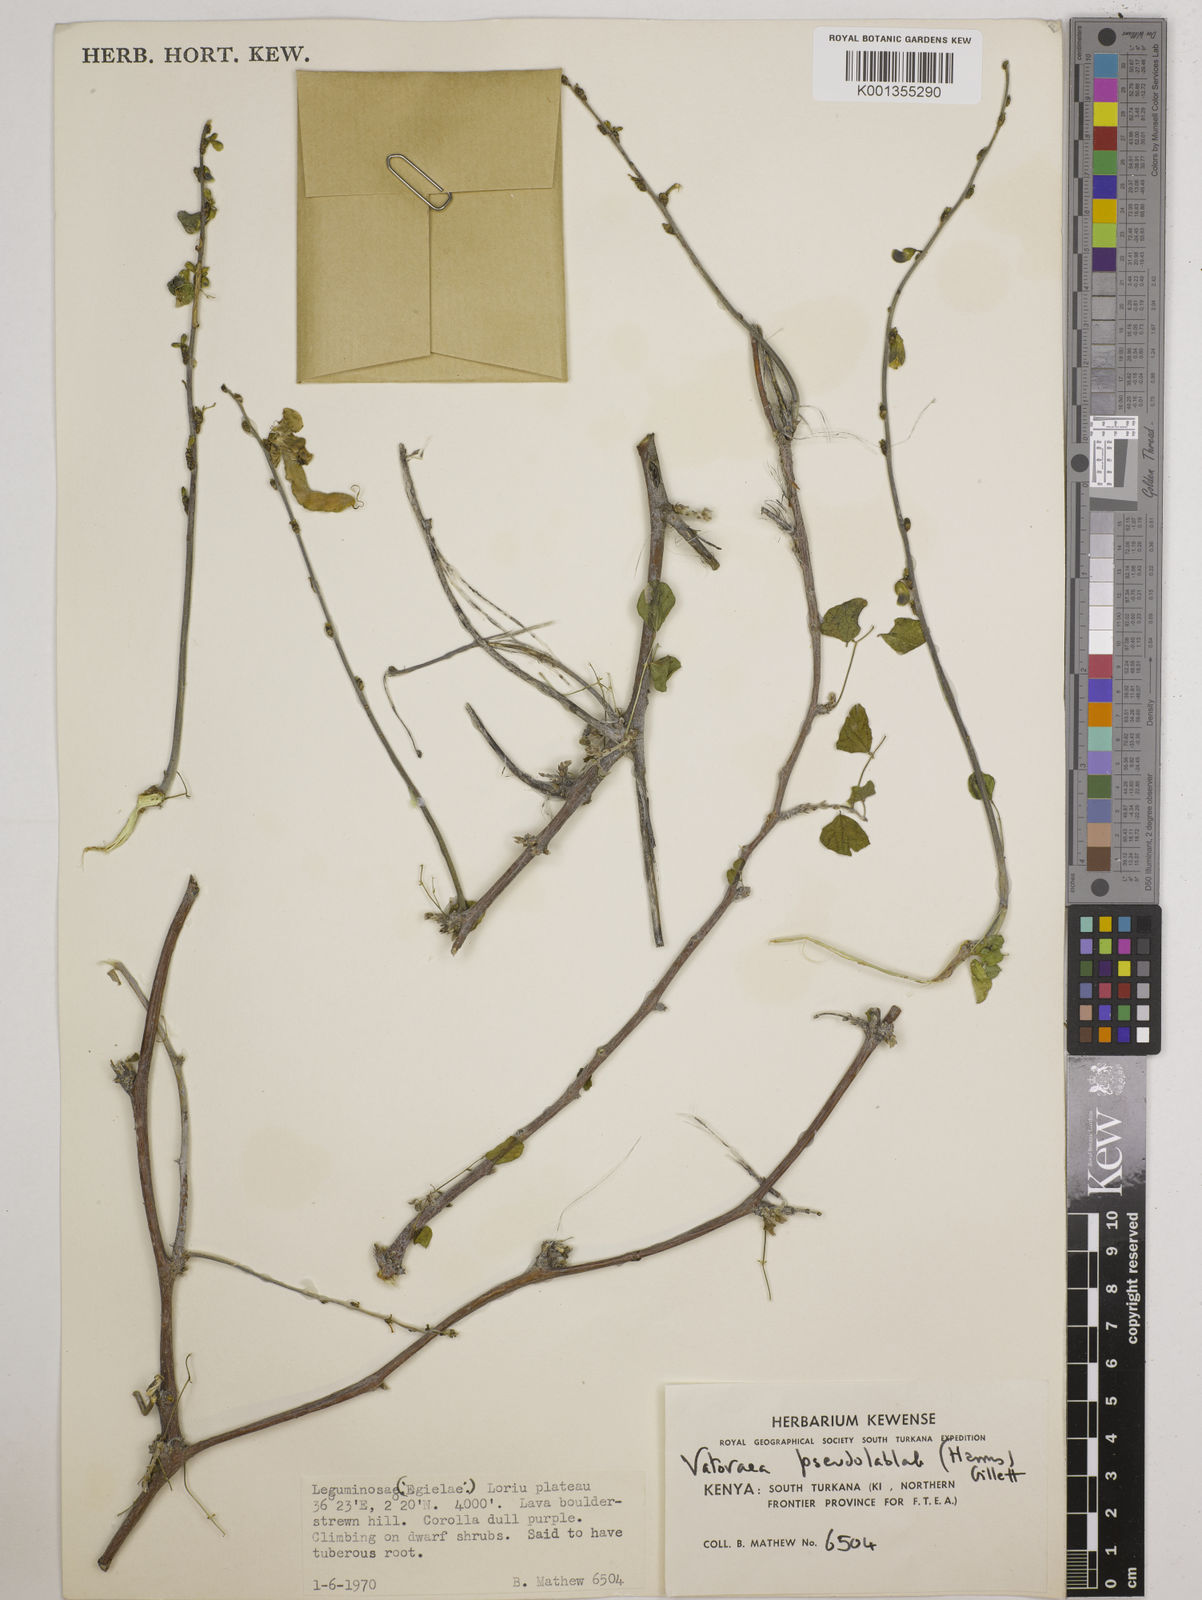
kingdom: Plantae
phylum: Tracheophyta
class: Magnoliopsida
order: Fabales
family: Fabaceae
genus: Vatovaea
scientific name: Vatovaea pseudolablab
